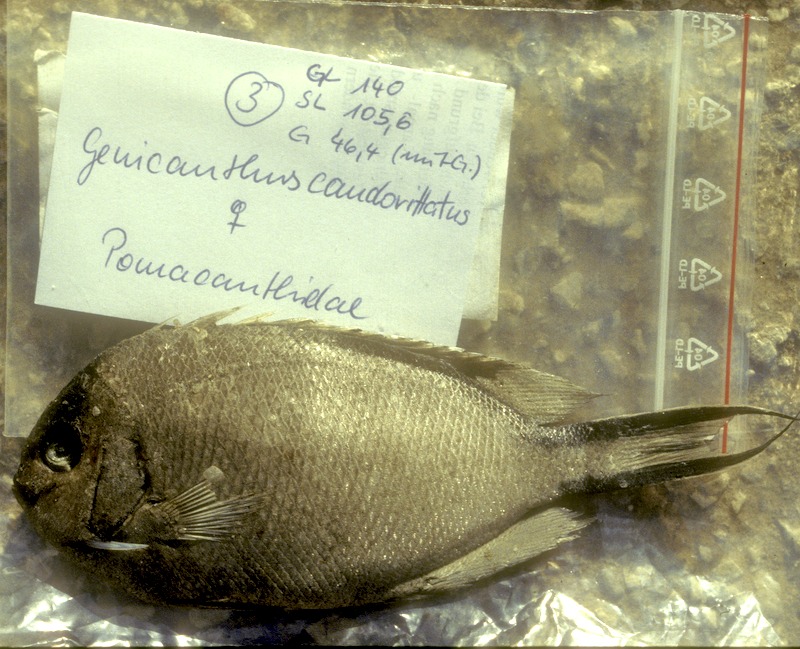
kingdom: Animalia
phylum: Chordata
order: Perciformes
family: Pomacanthidae
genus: Genicanthus
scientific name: Genicanthus caudovittatus
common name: Lyretail angelfish
